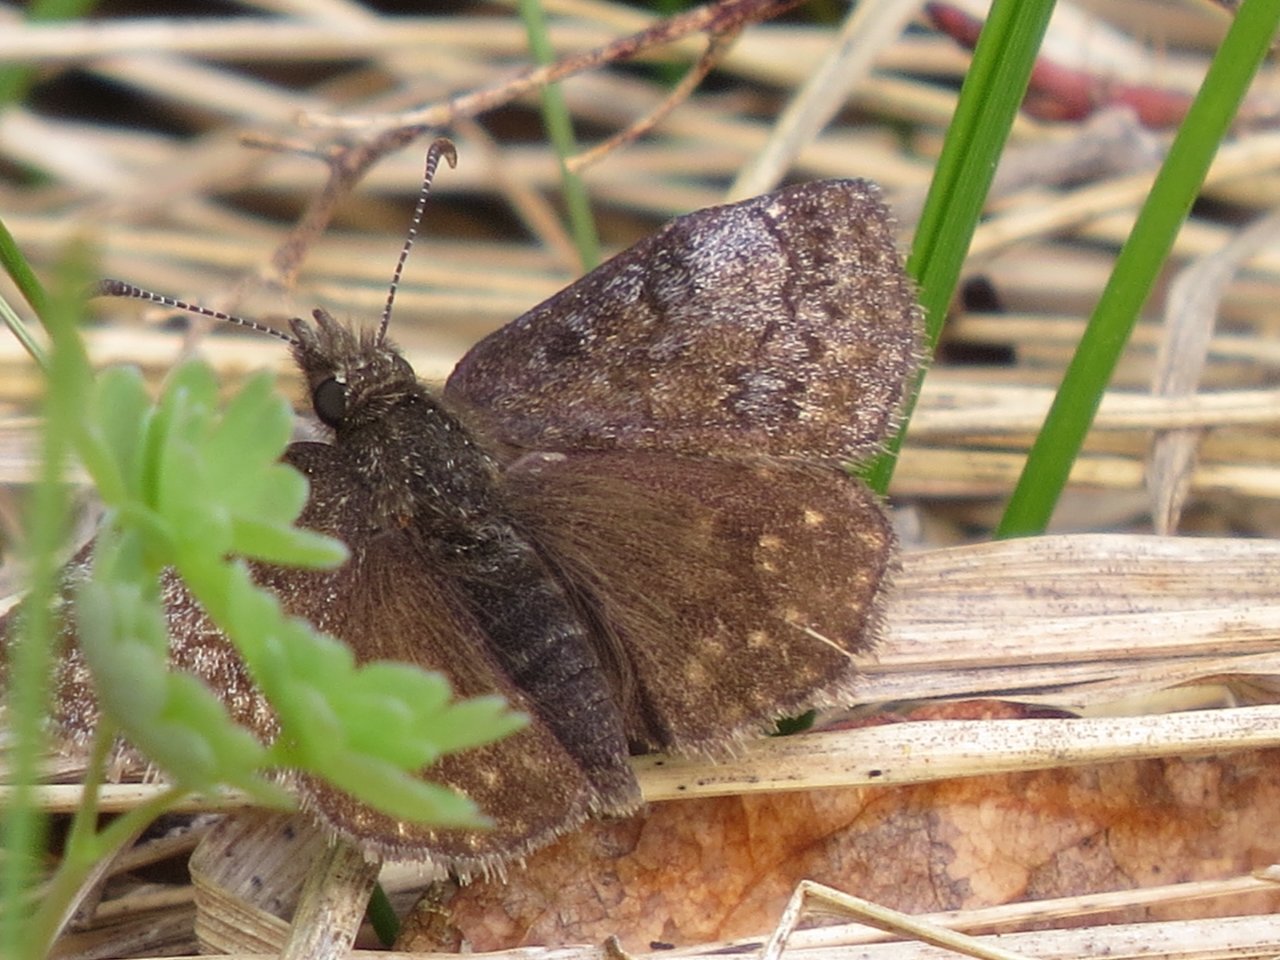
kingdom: Animalia
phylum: Arthropoda
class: Insecta
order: Lepidoptera
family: Hesperiidae
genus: Erynnis
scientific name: Erynnis icelus
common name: Dreamy Duskywing
